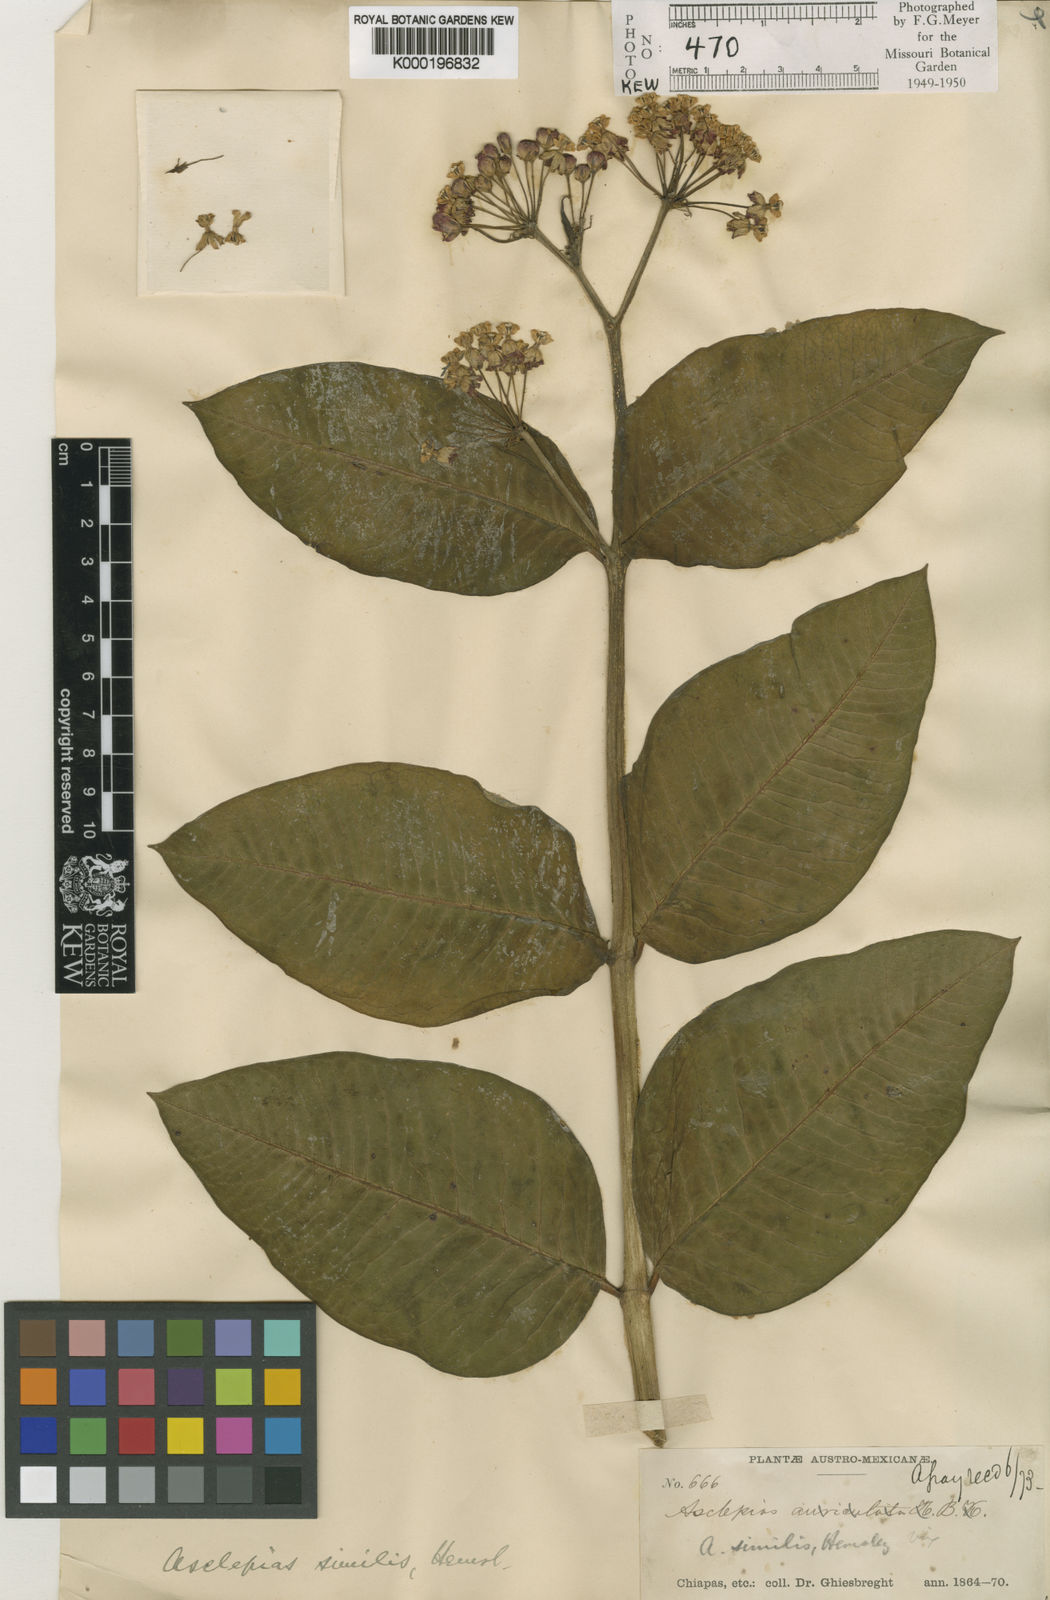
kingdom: Plantae
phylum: Tracheophyta
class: Magnoliopsida
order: Gentianales
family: Apocynaceae
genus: Asclepias
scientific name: Asclepias similis
